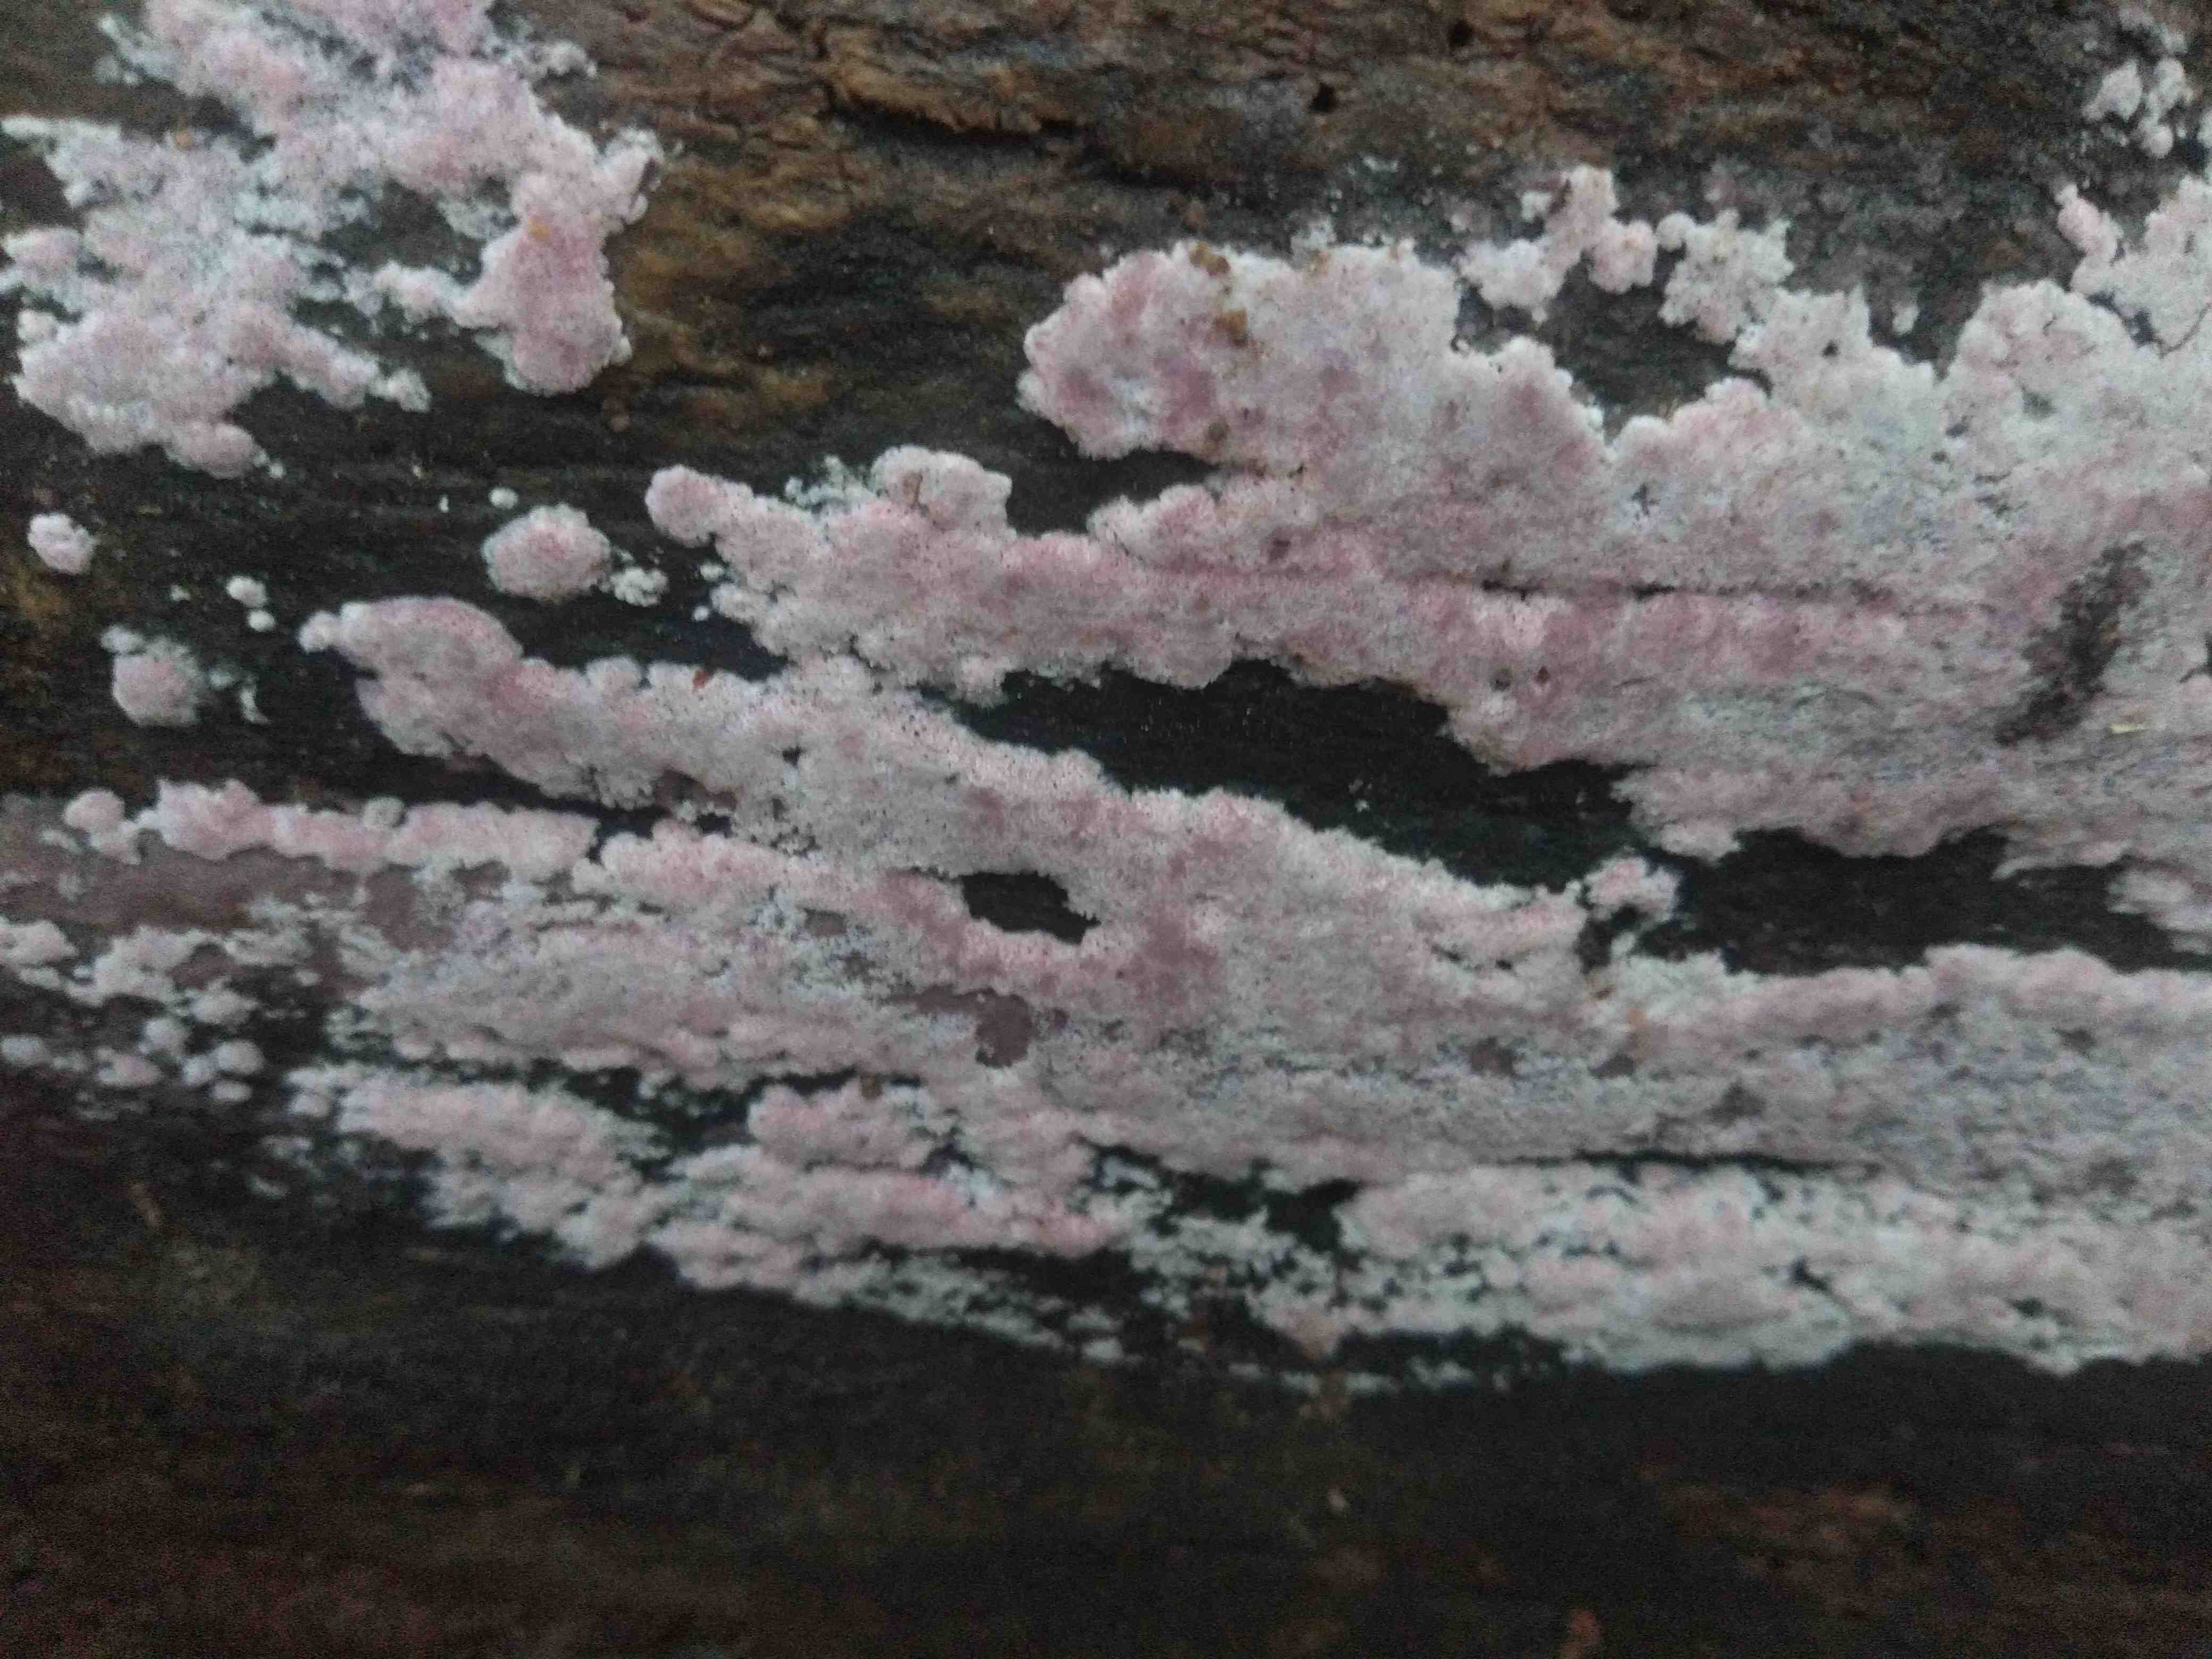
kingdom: Fungi
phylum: Basidiomycota
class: Agaricomycetes
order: Polyporales
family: Irpicaceae
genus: Ceriporia
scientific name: Ceriporia
